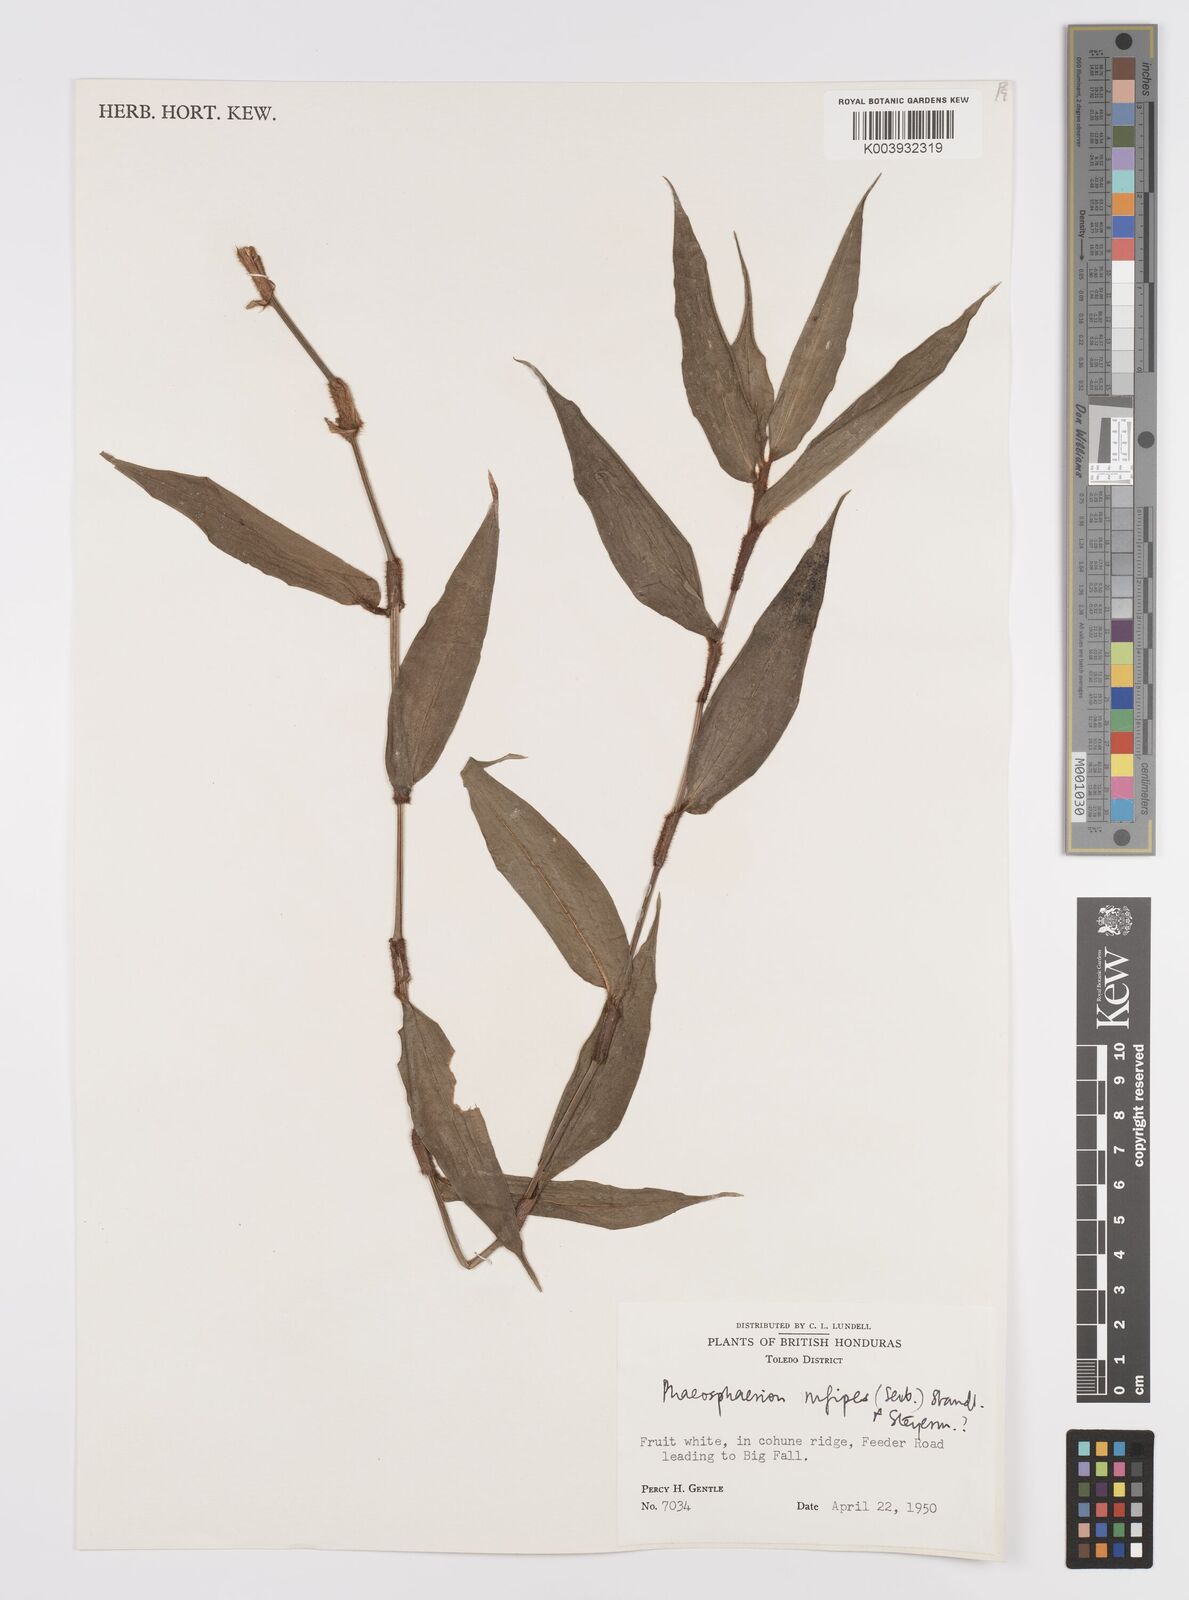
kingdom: Plantae
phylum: Tracheophyta
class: Liliopsida
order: Commelinales
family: Commelinaceae
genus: Commelina
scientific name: Commelina rufipes
